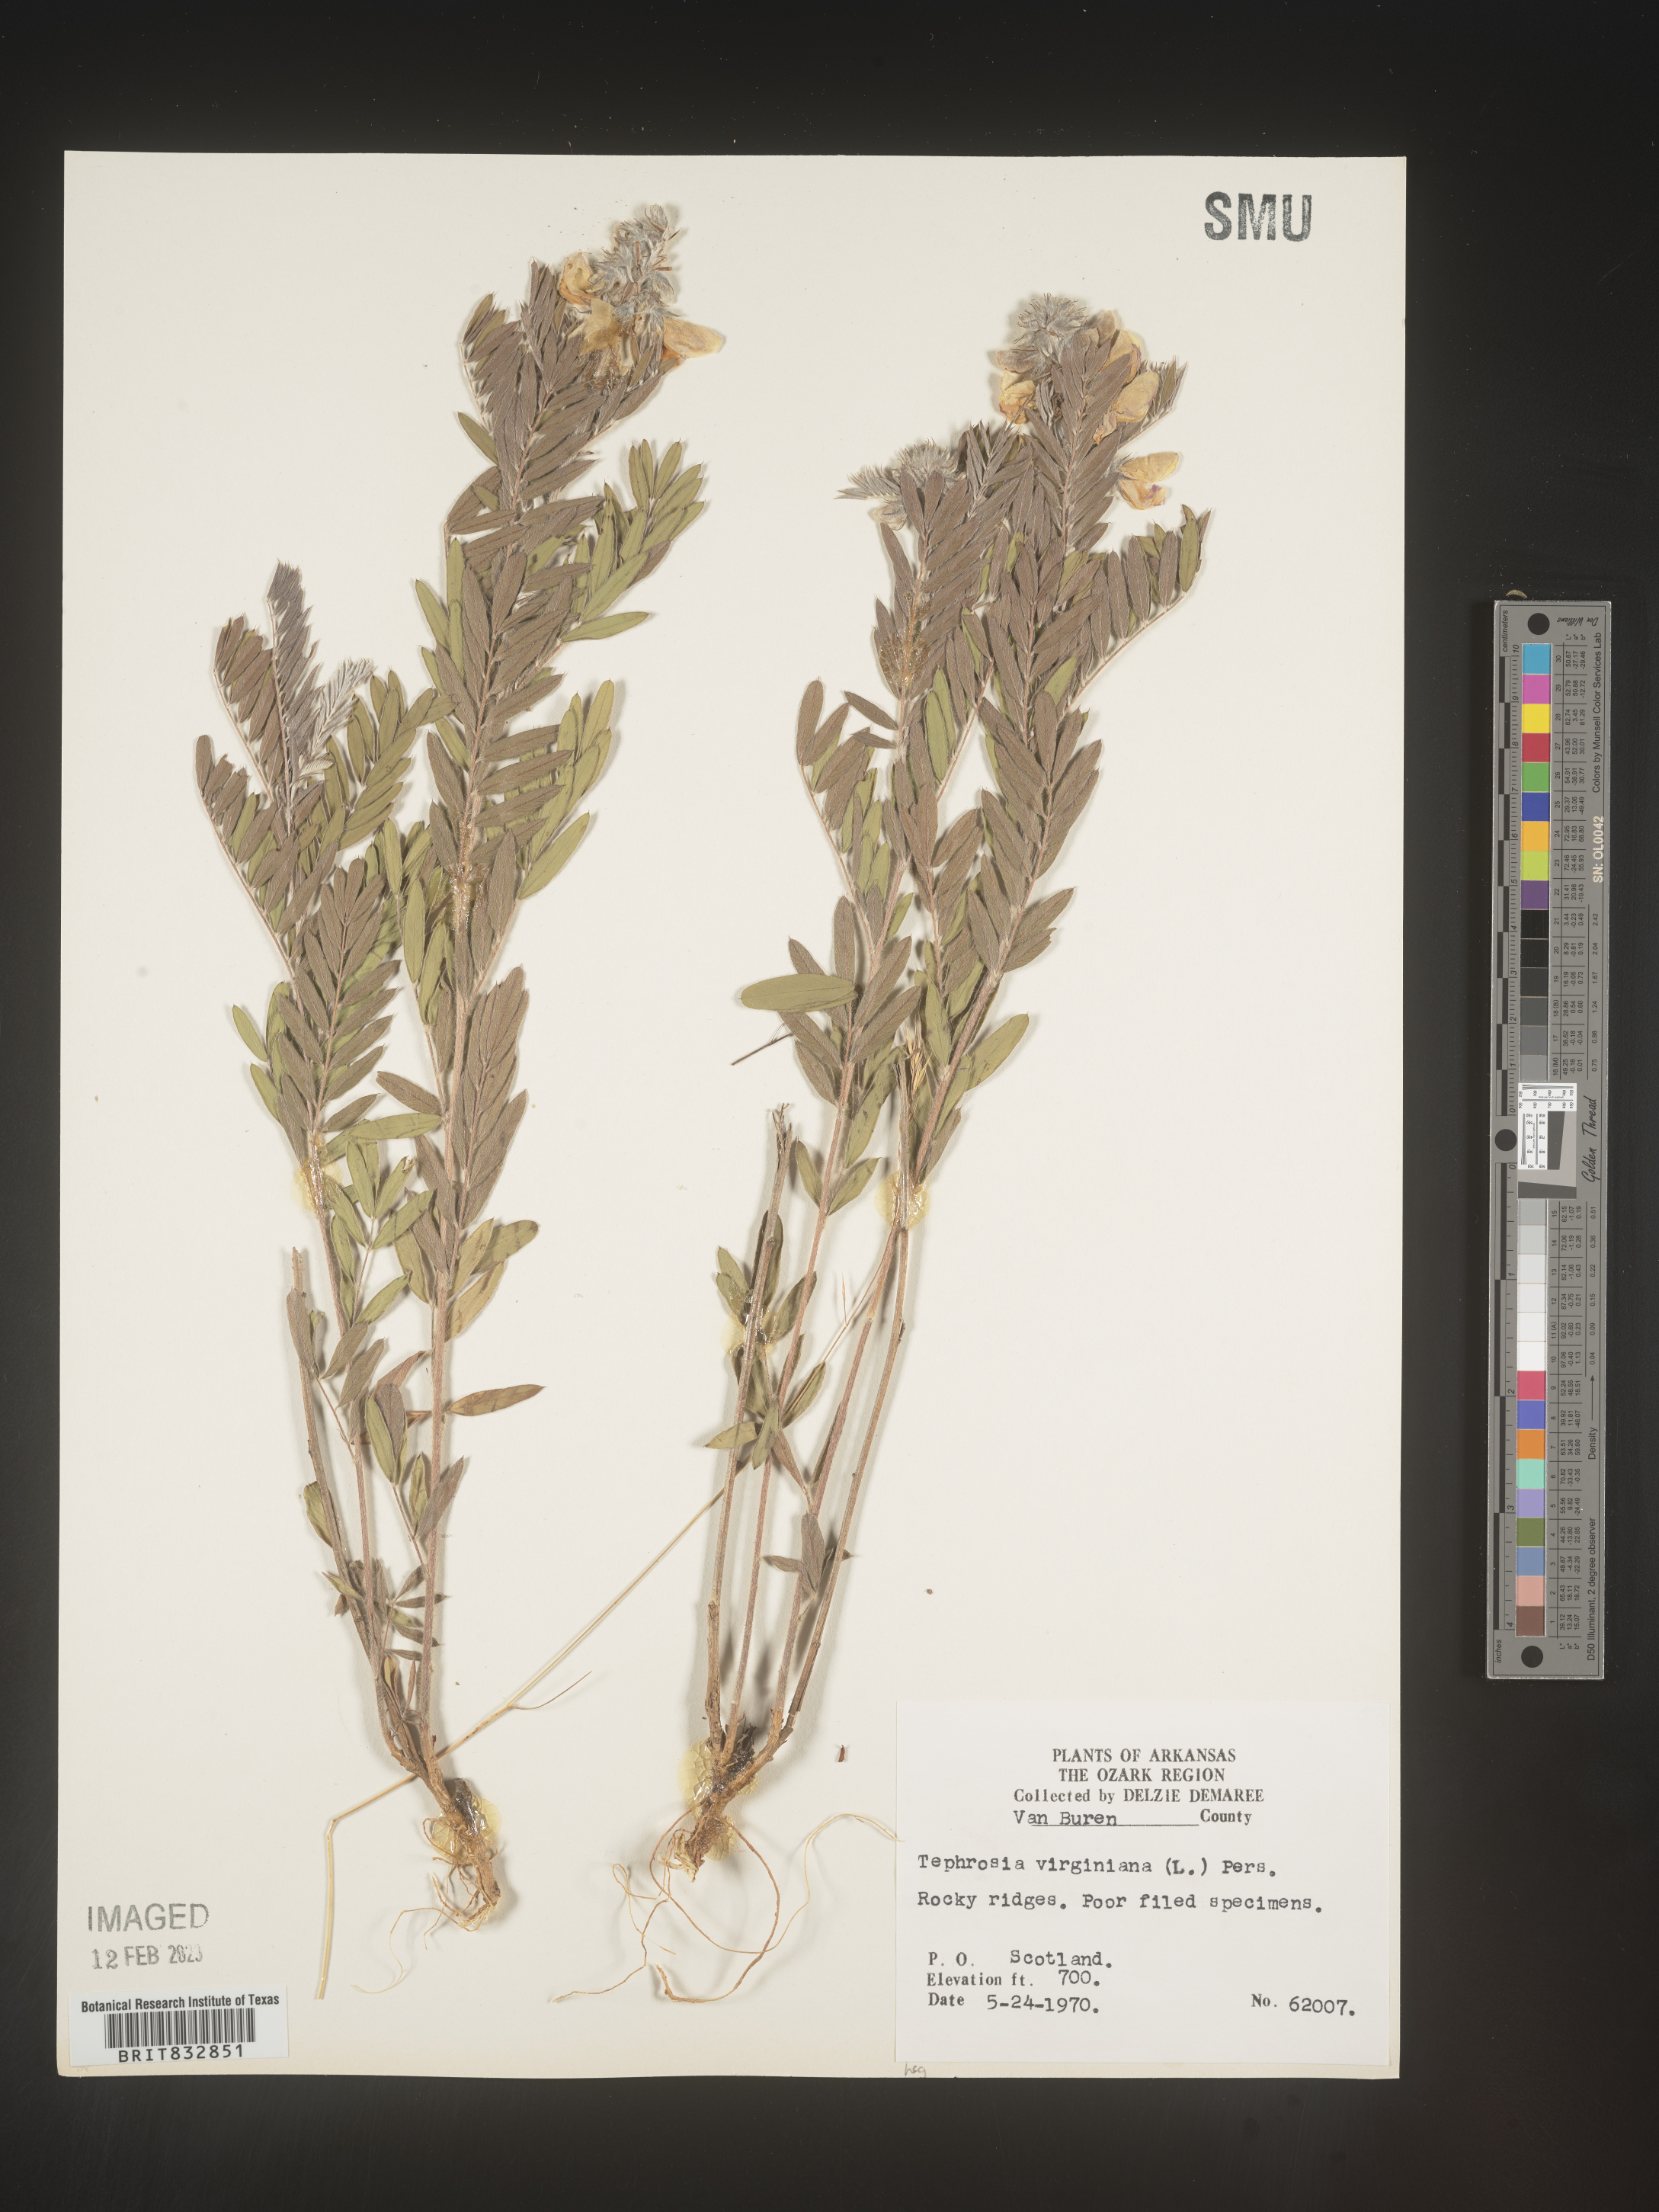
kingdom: Plantae
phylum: Tracheophyta
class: Magnoliopsida
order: Fabales
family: Fabaceae
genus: Tephrosia
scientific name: Tephrosia virginiana
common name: Rabbit-pea
